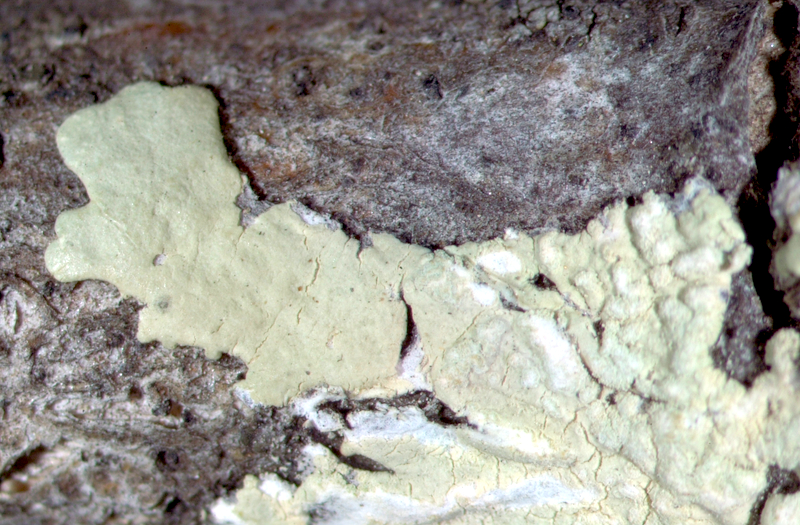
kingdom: Fungi
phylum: Ascomycota
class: Lecanoromycetes
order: Caliciales
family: Physciaceae
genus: Hyperphyscia
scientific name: Hyperphyscia syncolla
